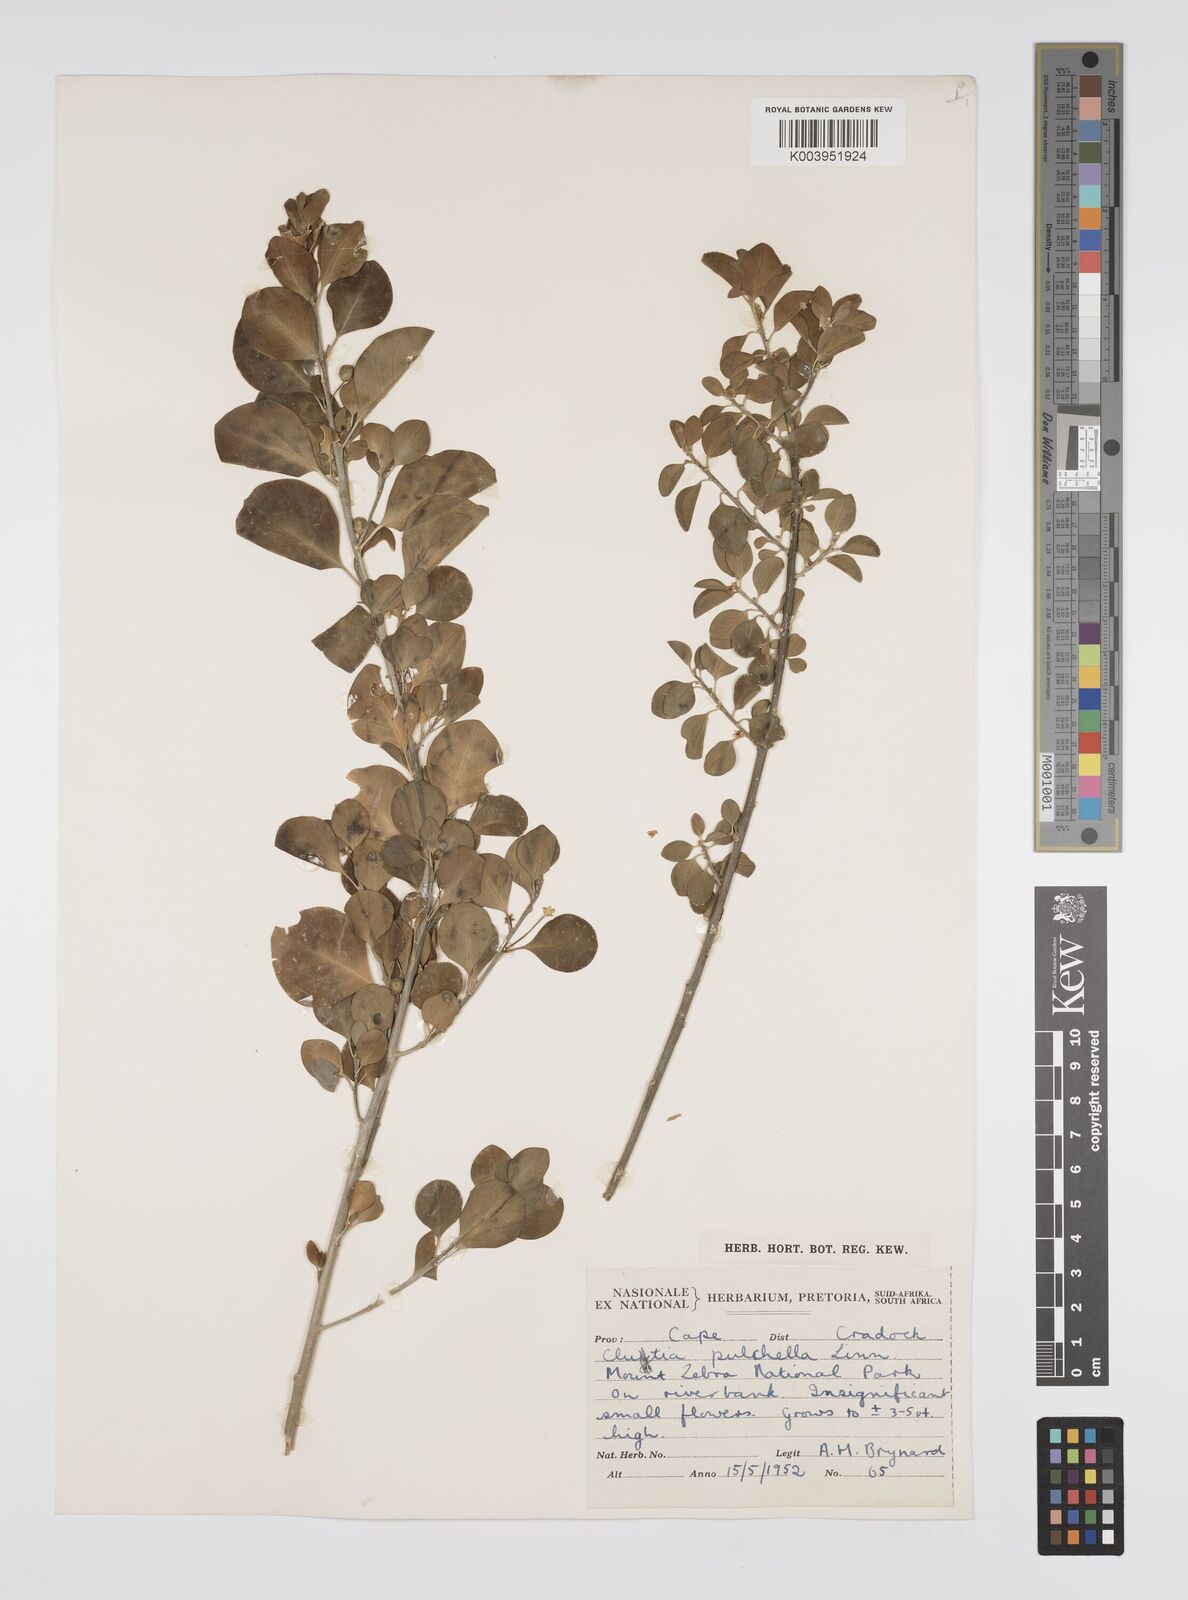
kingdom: Plantae
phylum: Tracheophyta
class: Magnoliopsida
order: Malpighiales
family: Peraceae
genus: Clutia
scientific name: Clutia pulchella
